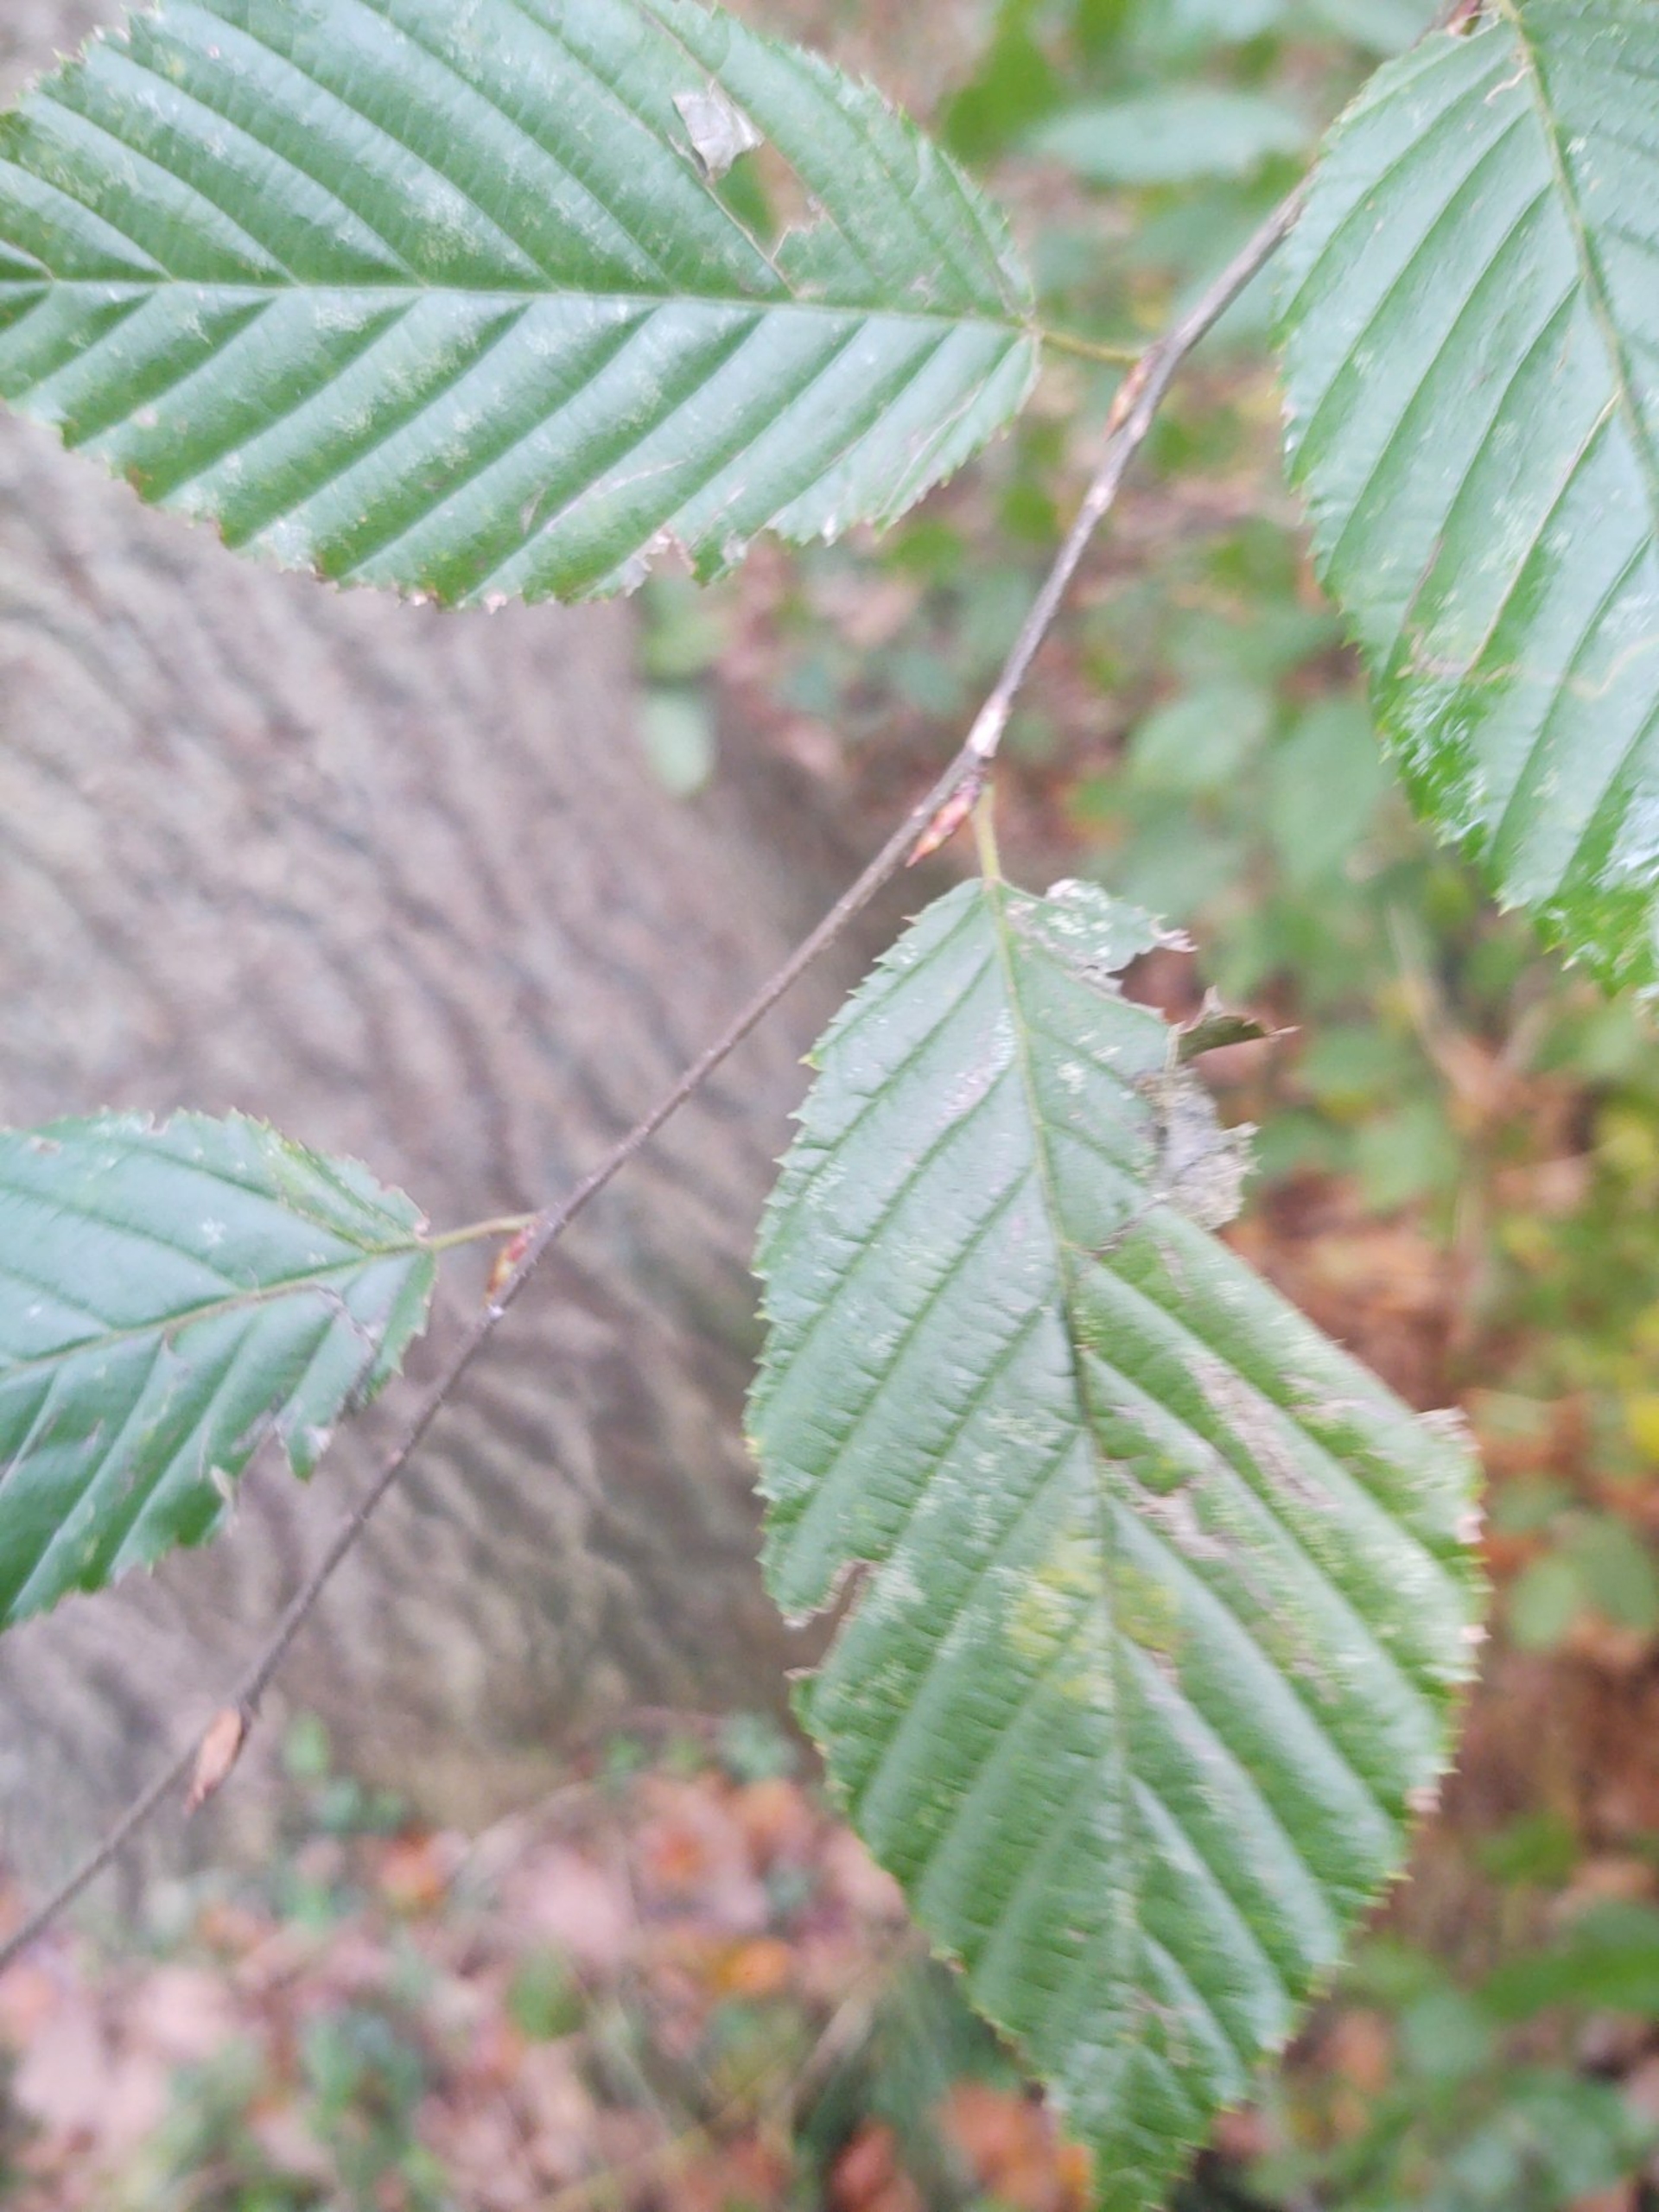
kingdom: Plantae
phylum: Tracheophyta
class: Magnoliopsida
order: Fagales
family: Betulaceae
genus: Carpinus
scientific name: Carpinus betulus
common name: Avnbøg
